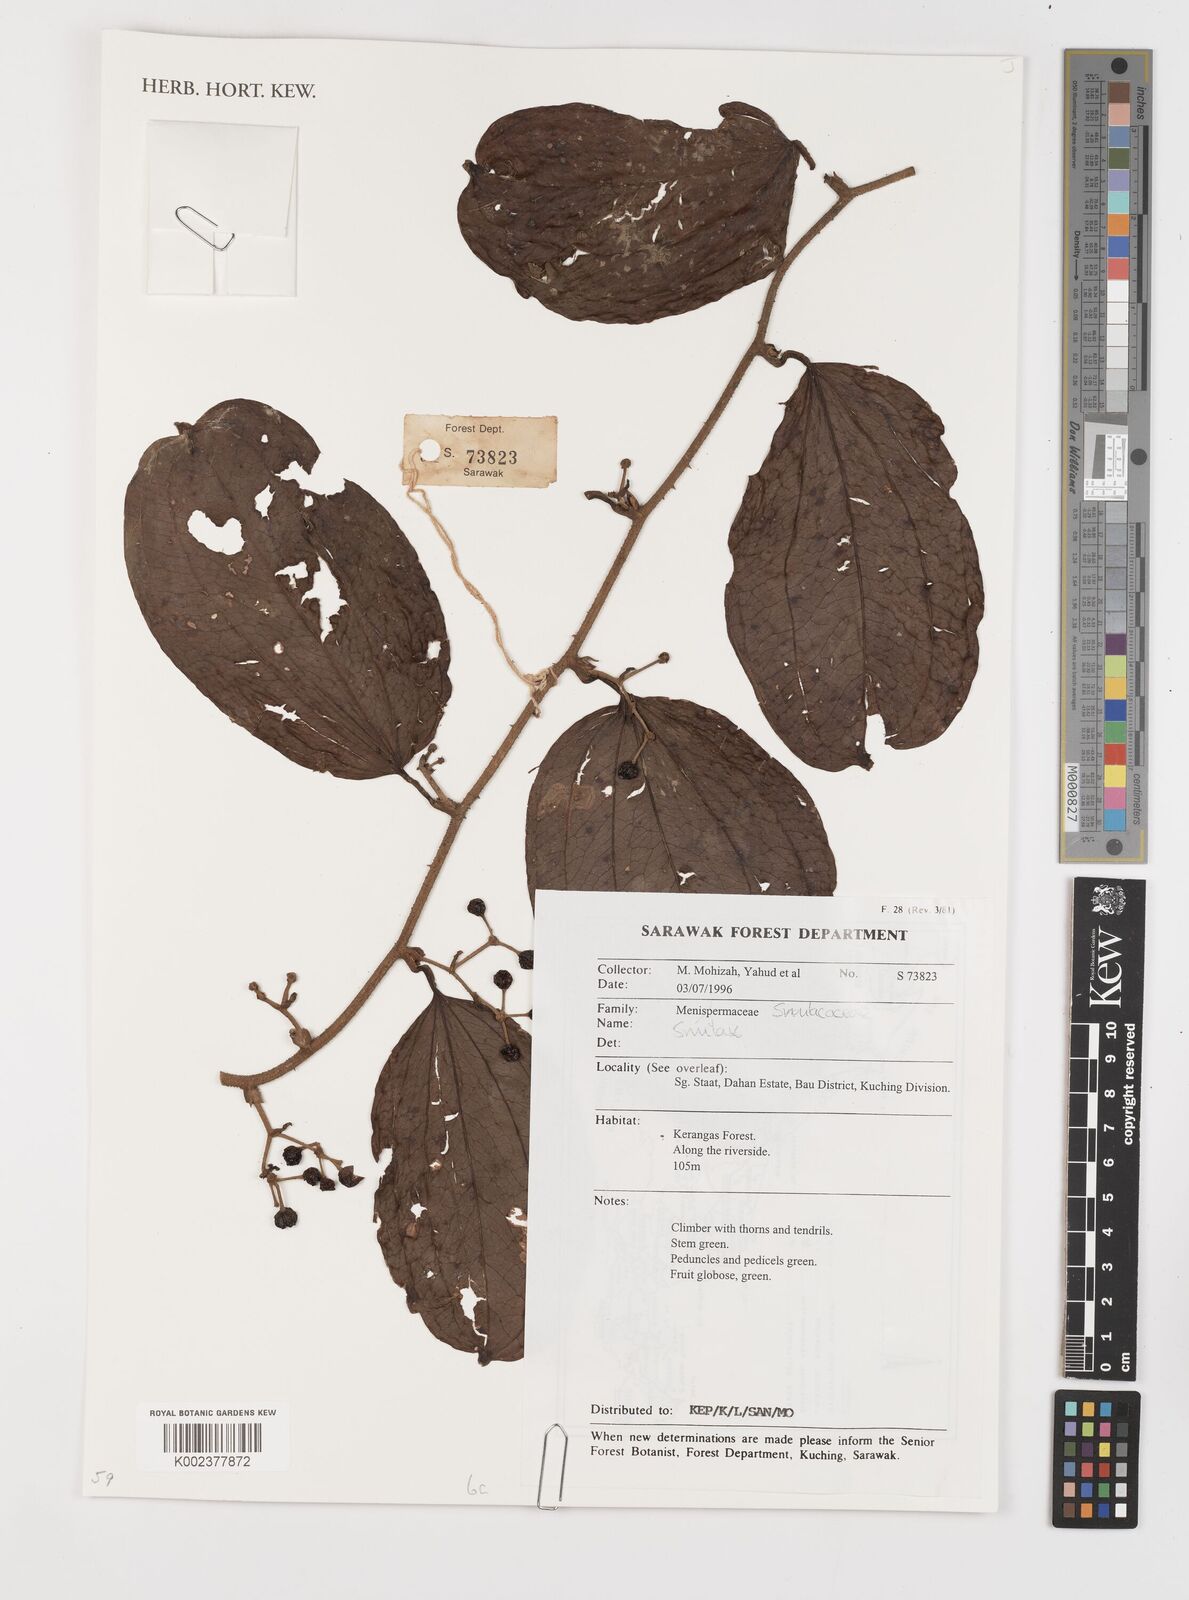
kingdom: Plantae
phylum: Tracheophyta
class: Liliopsida
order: Liliales
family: Smilacaceae
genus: Smilax
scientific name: Smilax
